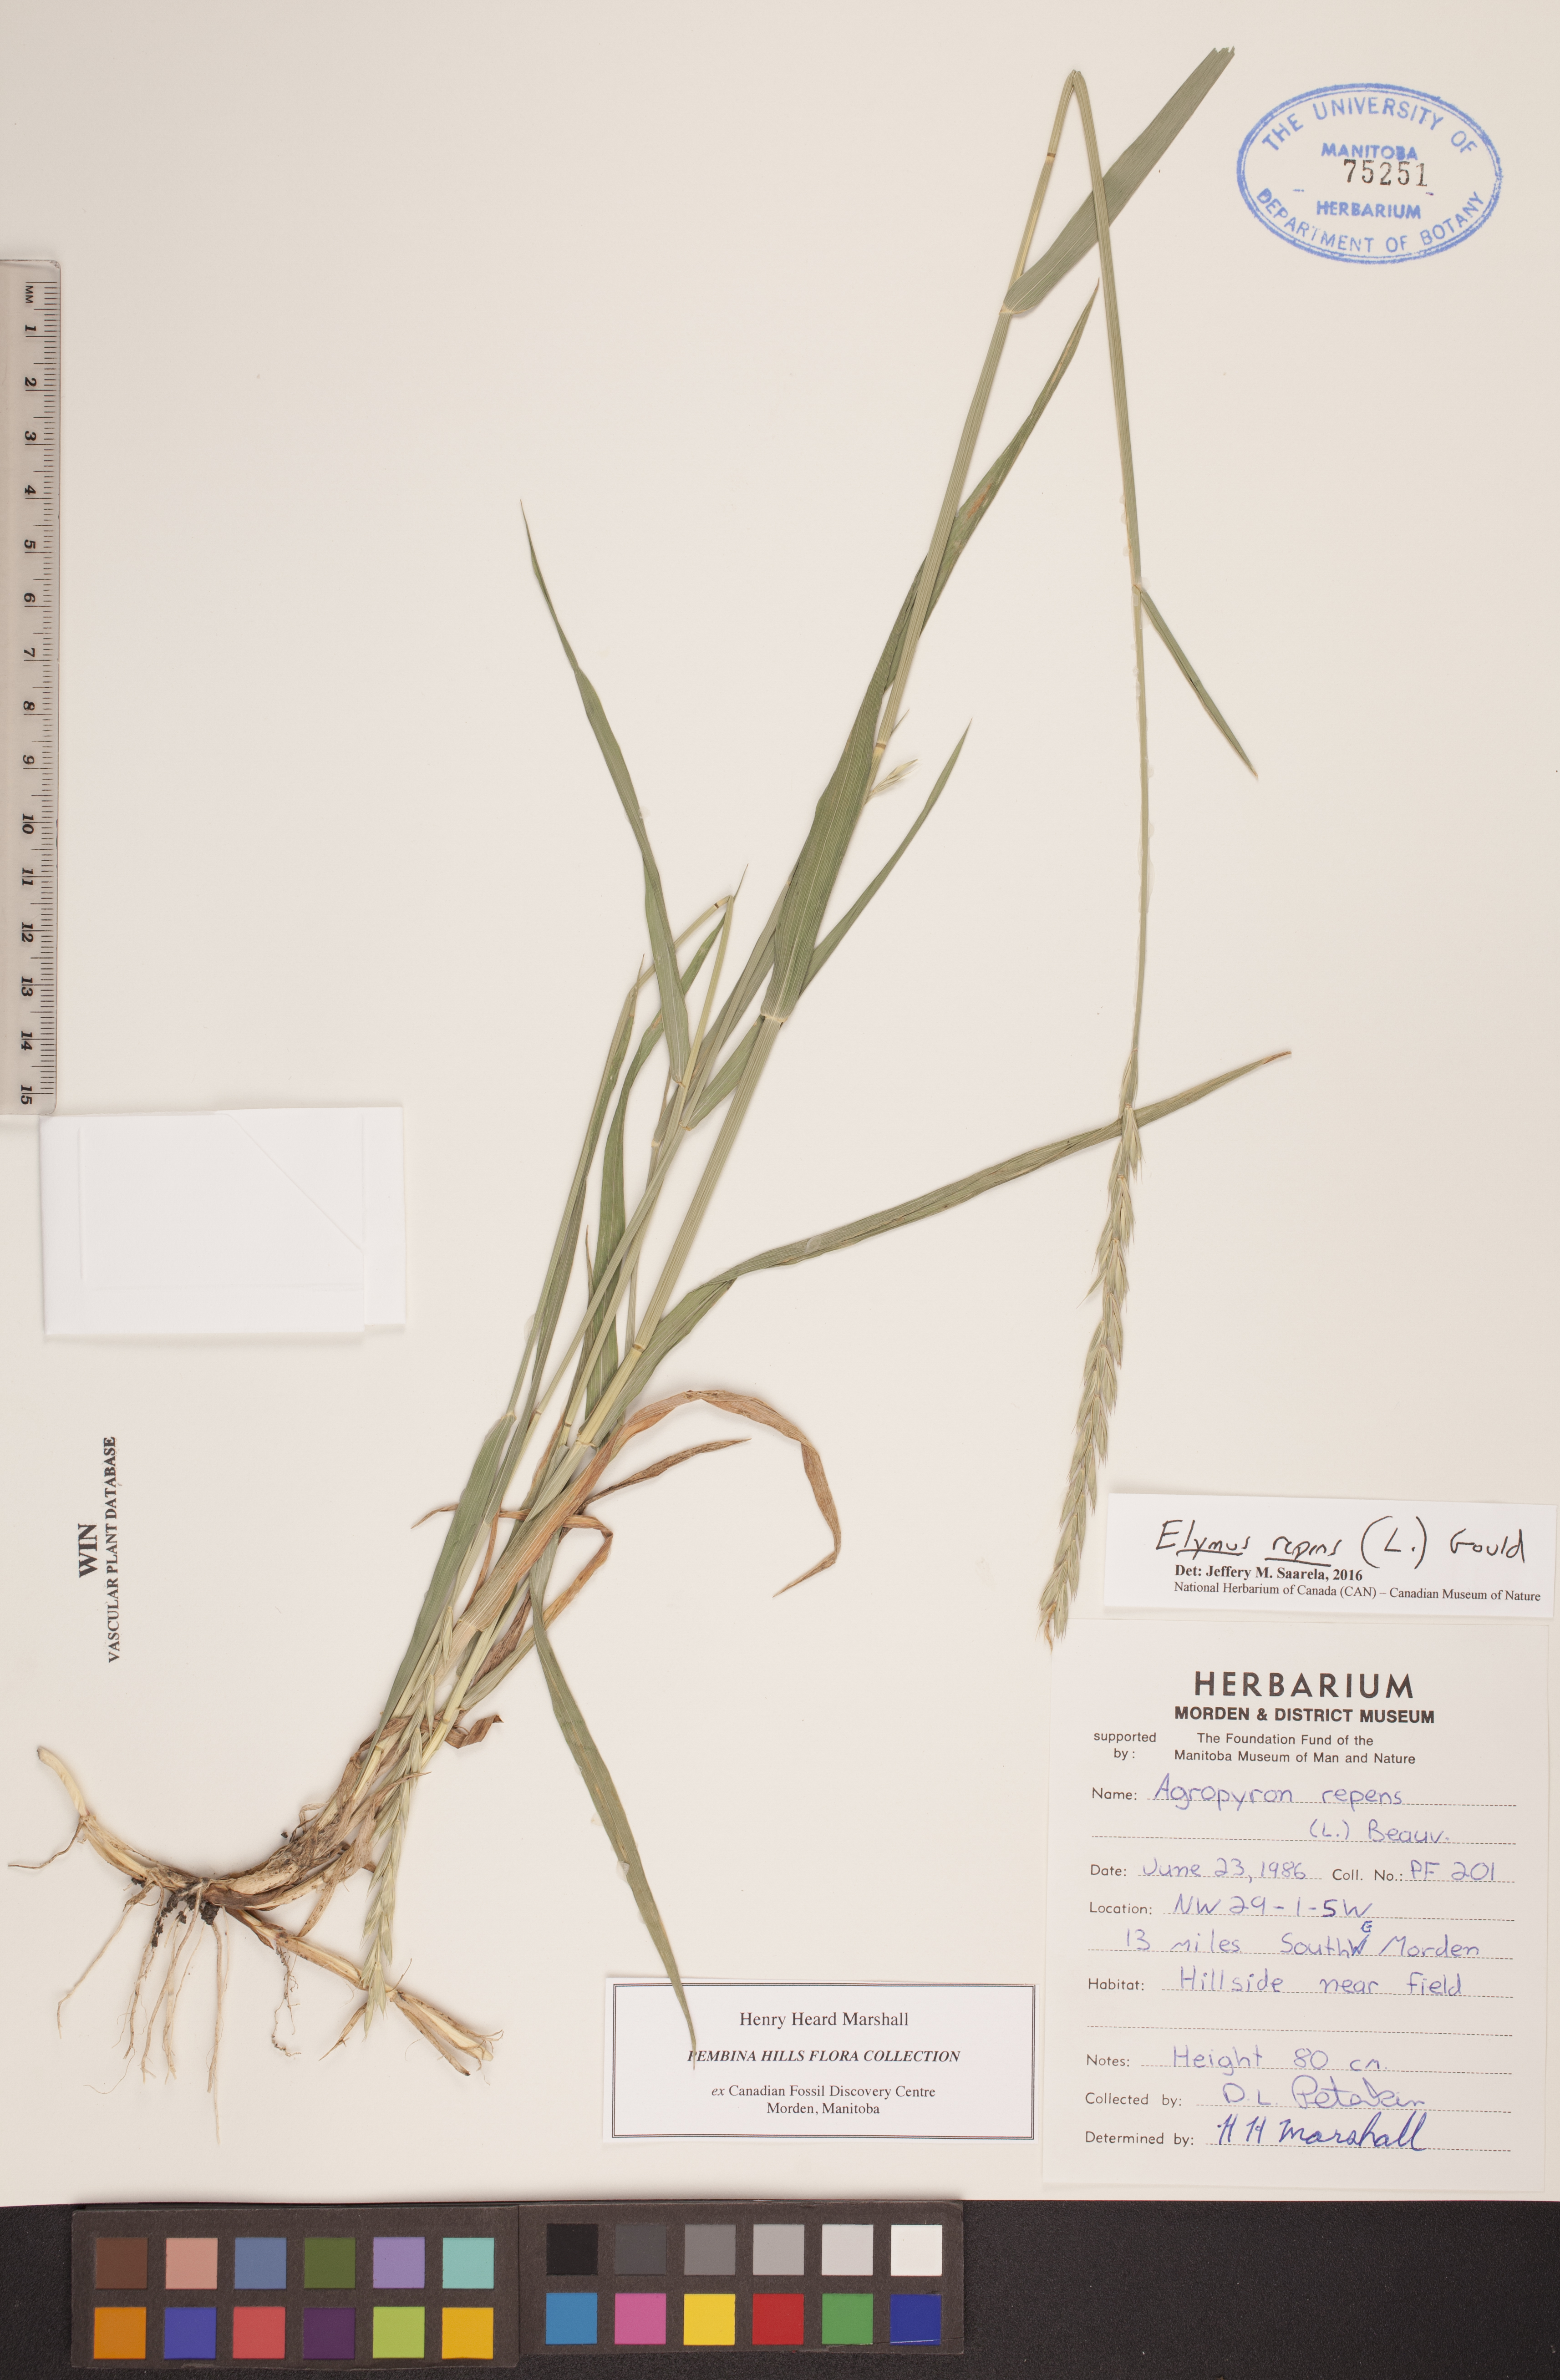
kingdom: Plantae
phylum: Tracheophyta
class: Liliopsida
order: Poales
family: Poaceae
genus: Elymus
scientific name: Elymus repens
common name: Quackgrass
